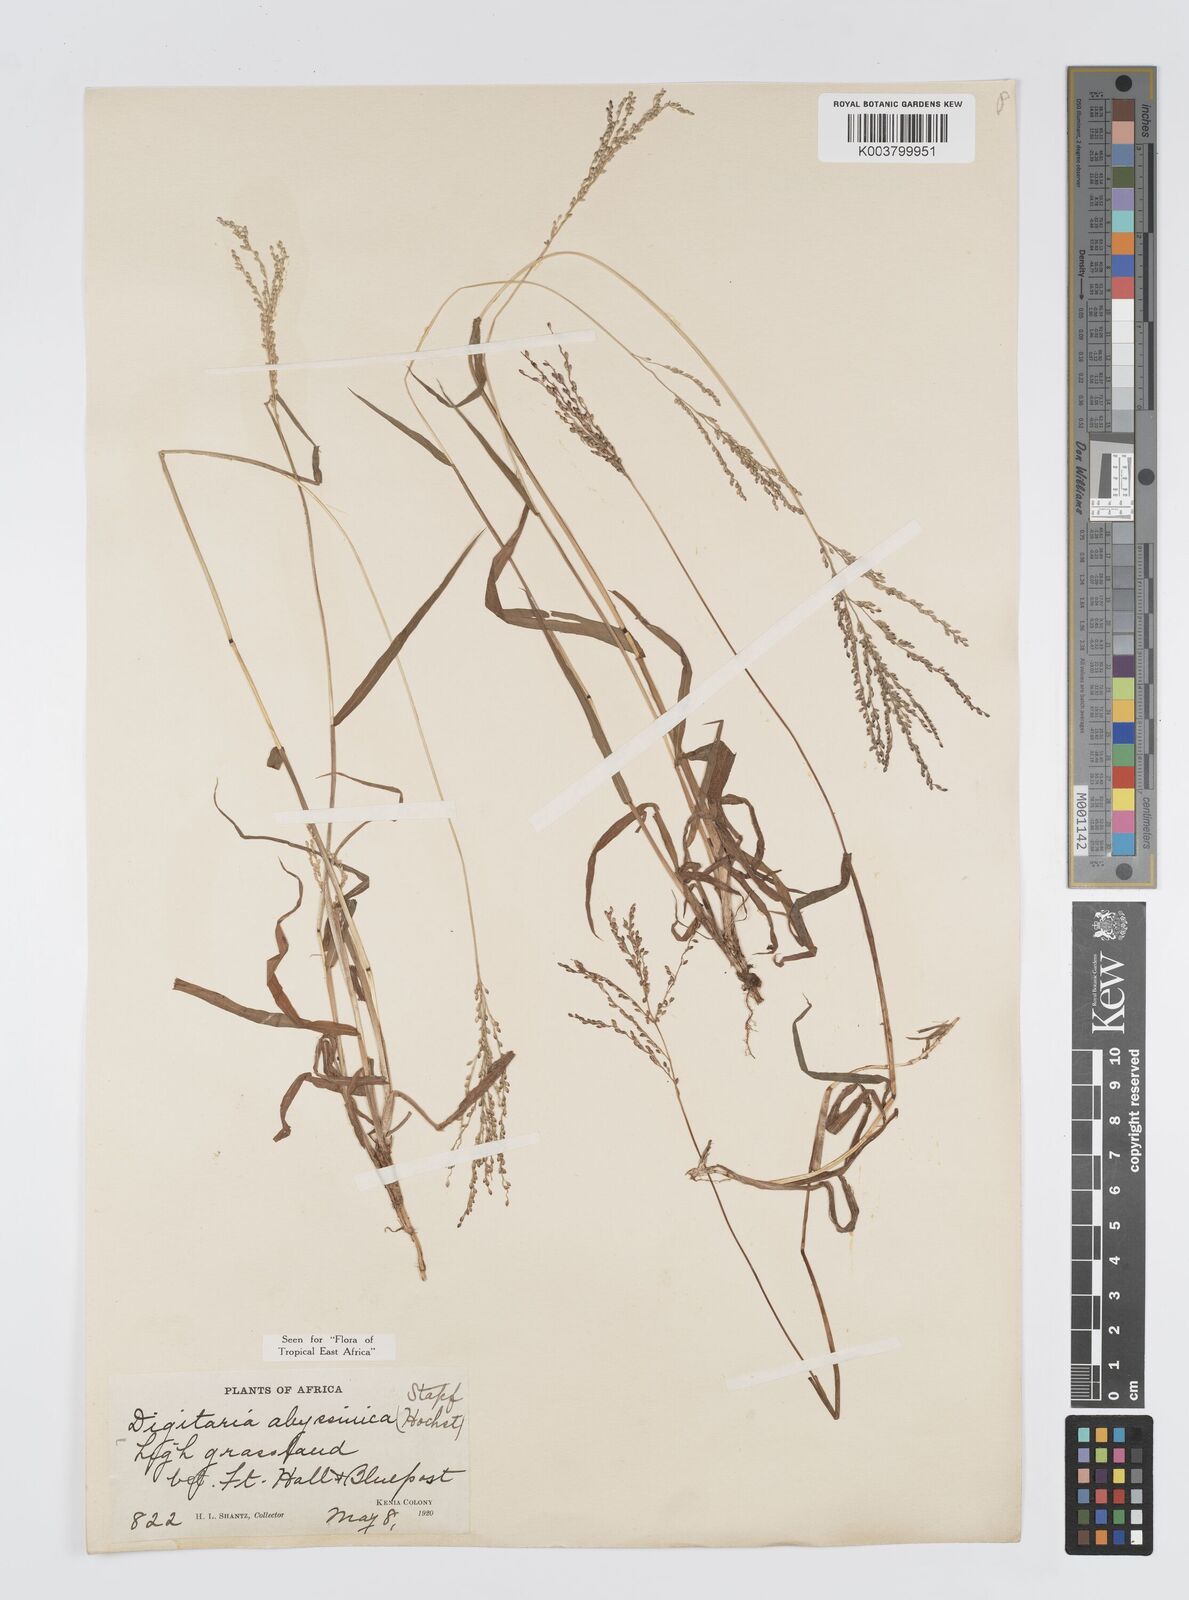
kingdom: Plantae
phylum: Tracheophyta
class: Liliopsida
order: Poales
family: Poaceae
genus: Digitaria
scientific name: Digitaria abyssinica
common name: African couchgrass
